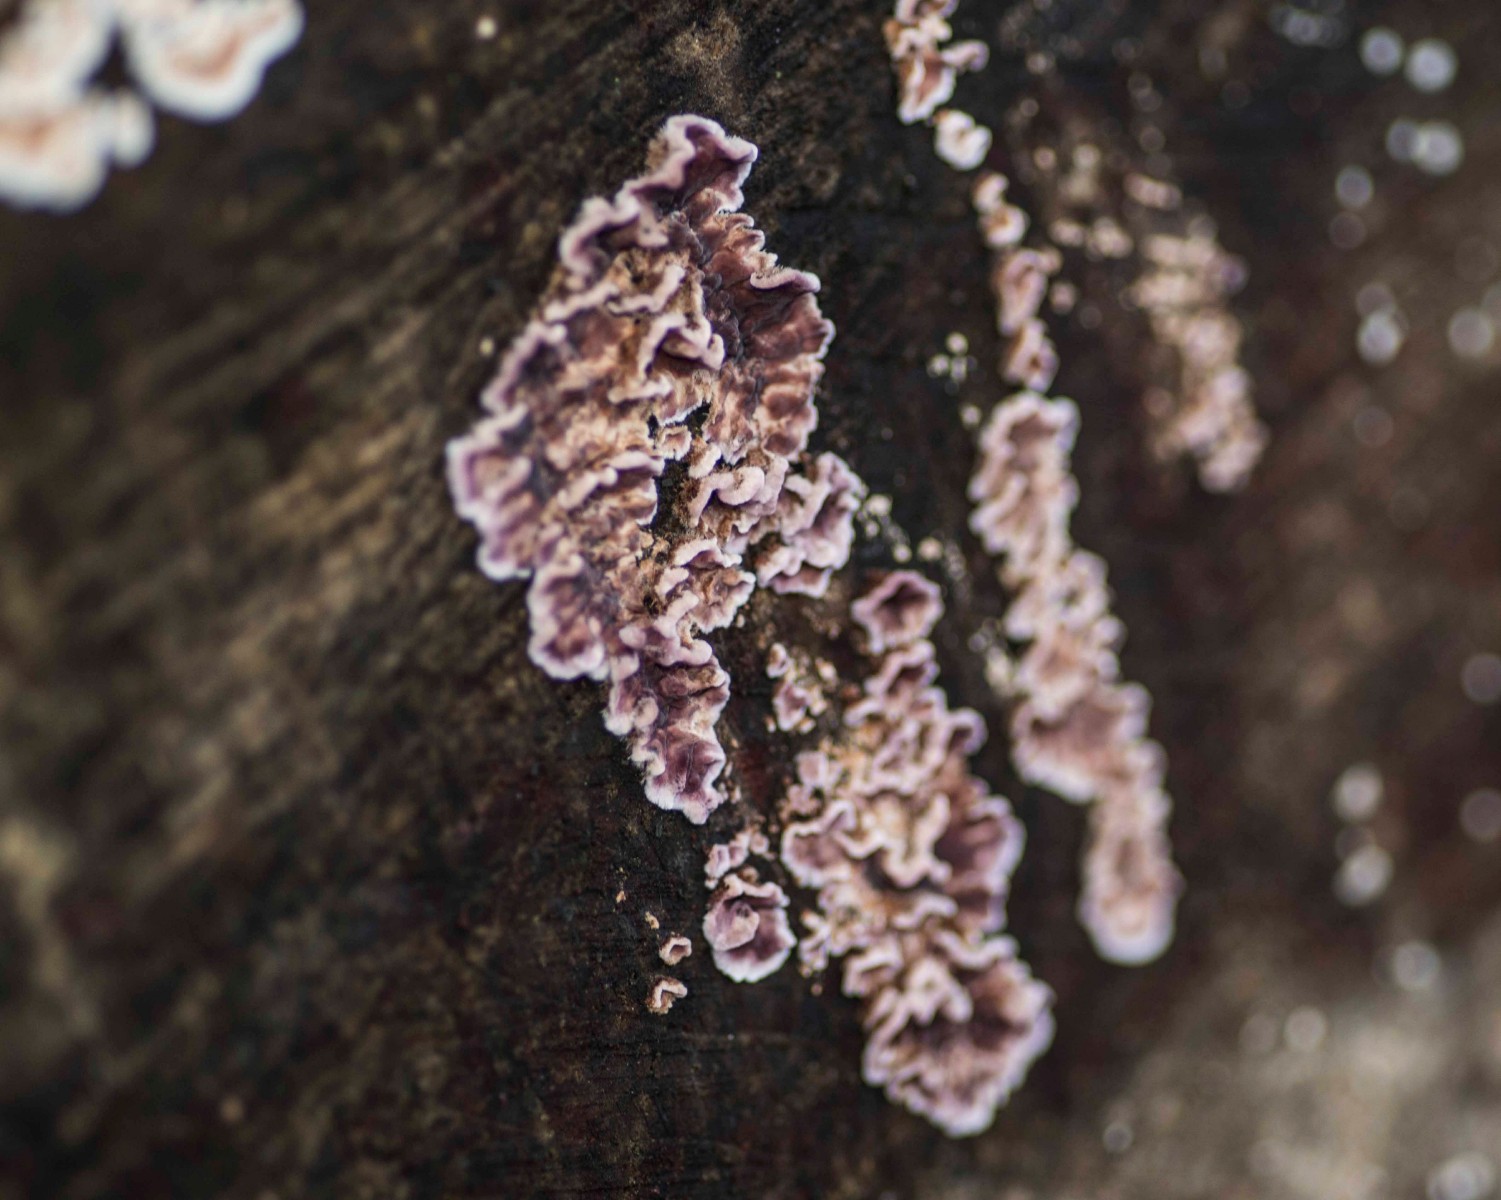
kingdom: Fungi
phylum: Basidiomycota
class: Agaricomycetes
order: Agaricales
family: Cyphellaceae
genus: Chondrostereum
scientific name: Chondrostereum purpureum
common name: purpurlædersvamp
